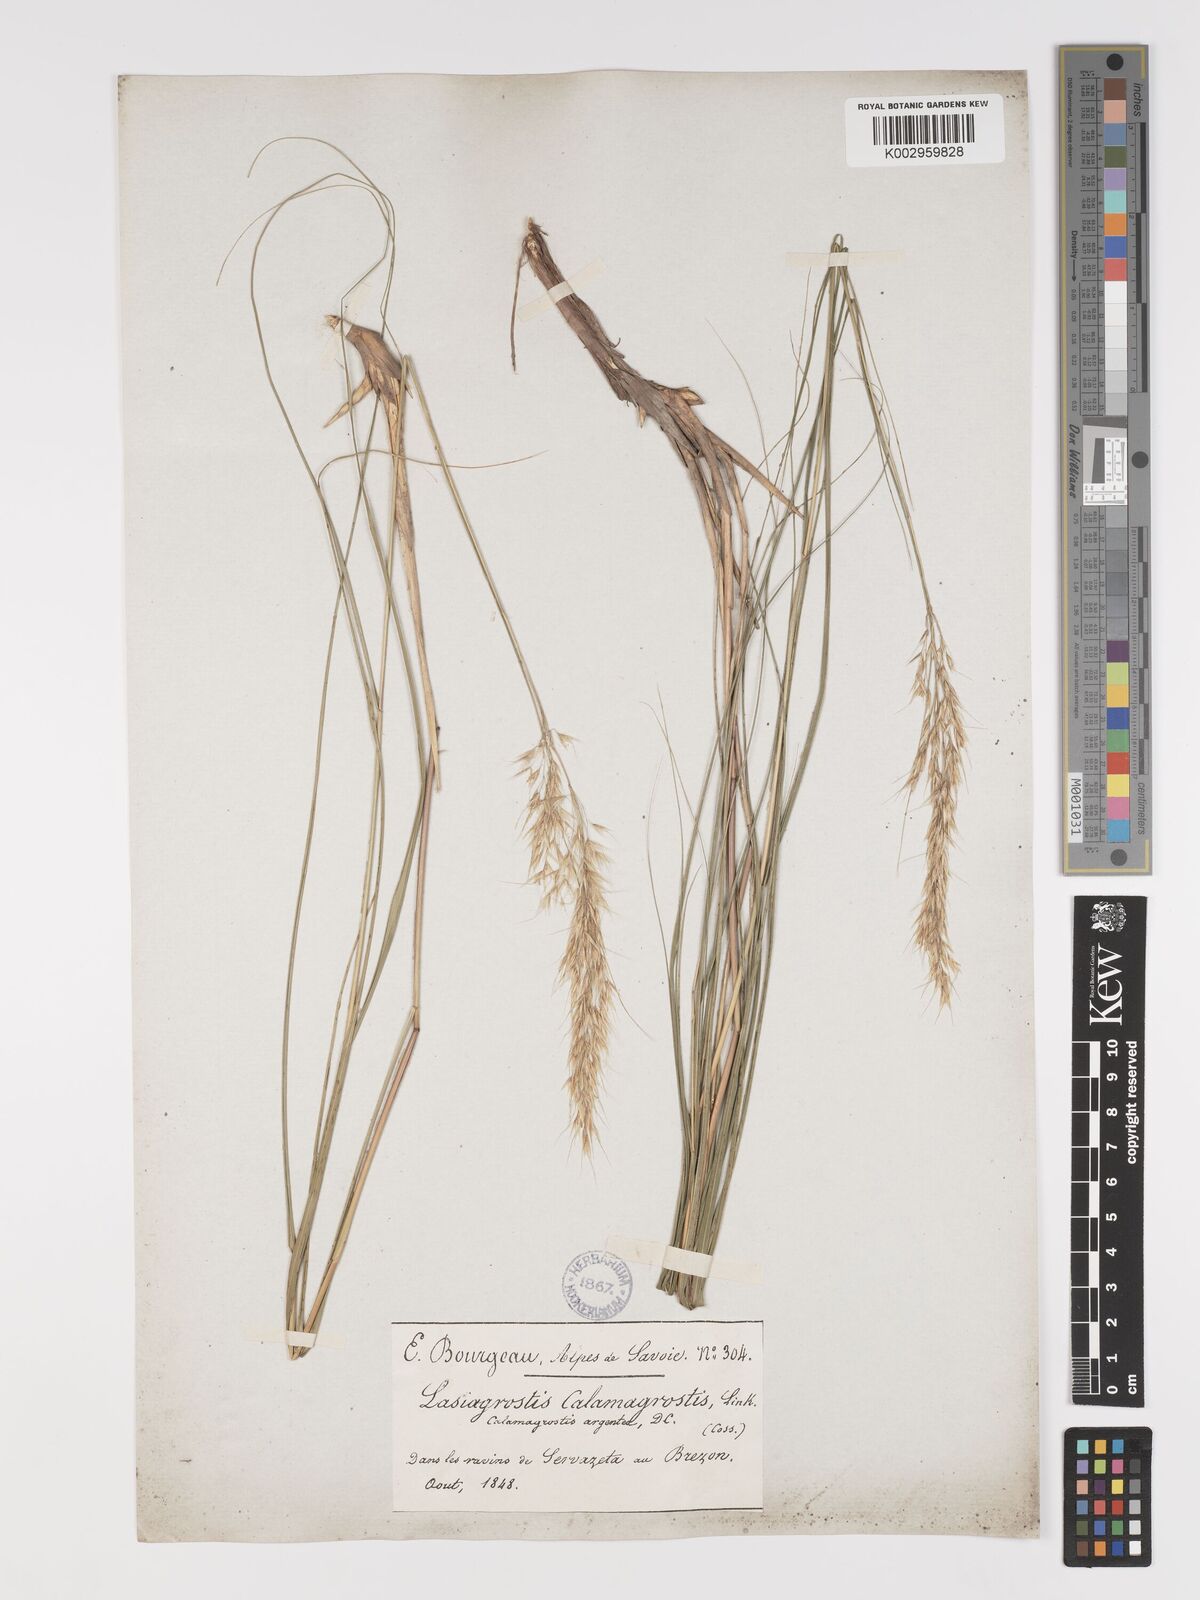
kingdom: Plantae
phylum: Tracheophyta
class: Liliopsida
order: Poales
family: Poaceae
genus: Achnatherum
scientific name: Achnatherum calamagrostis
